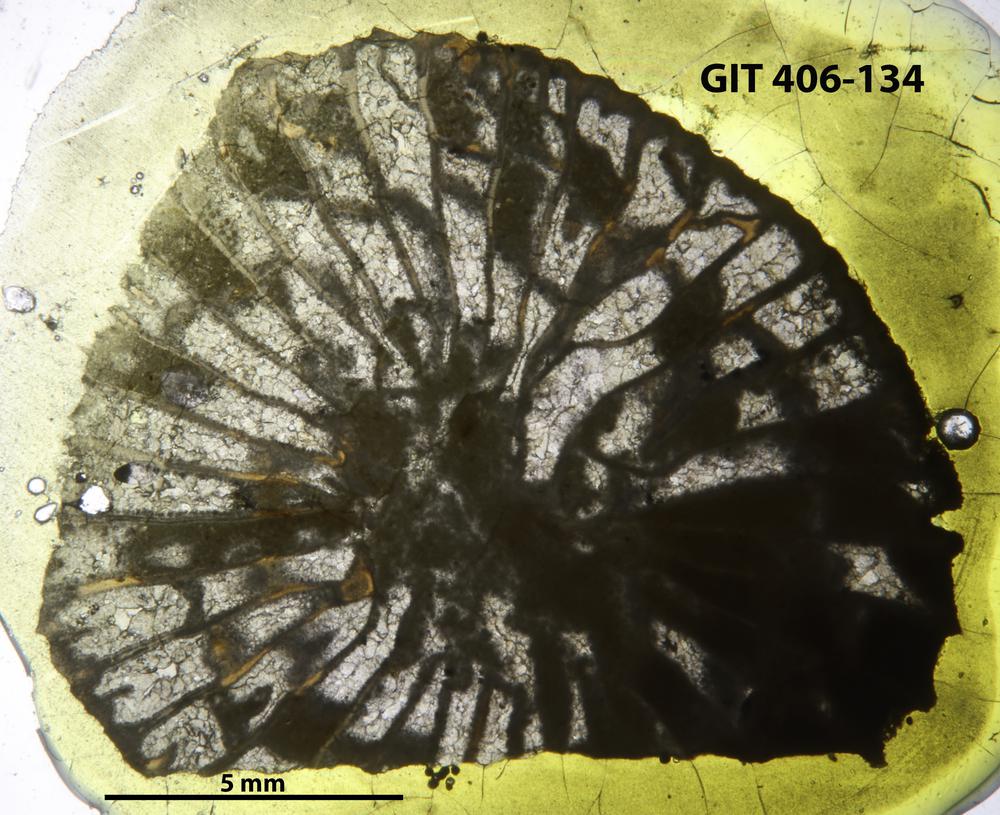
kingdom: Animalia
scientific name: Animalia
